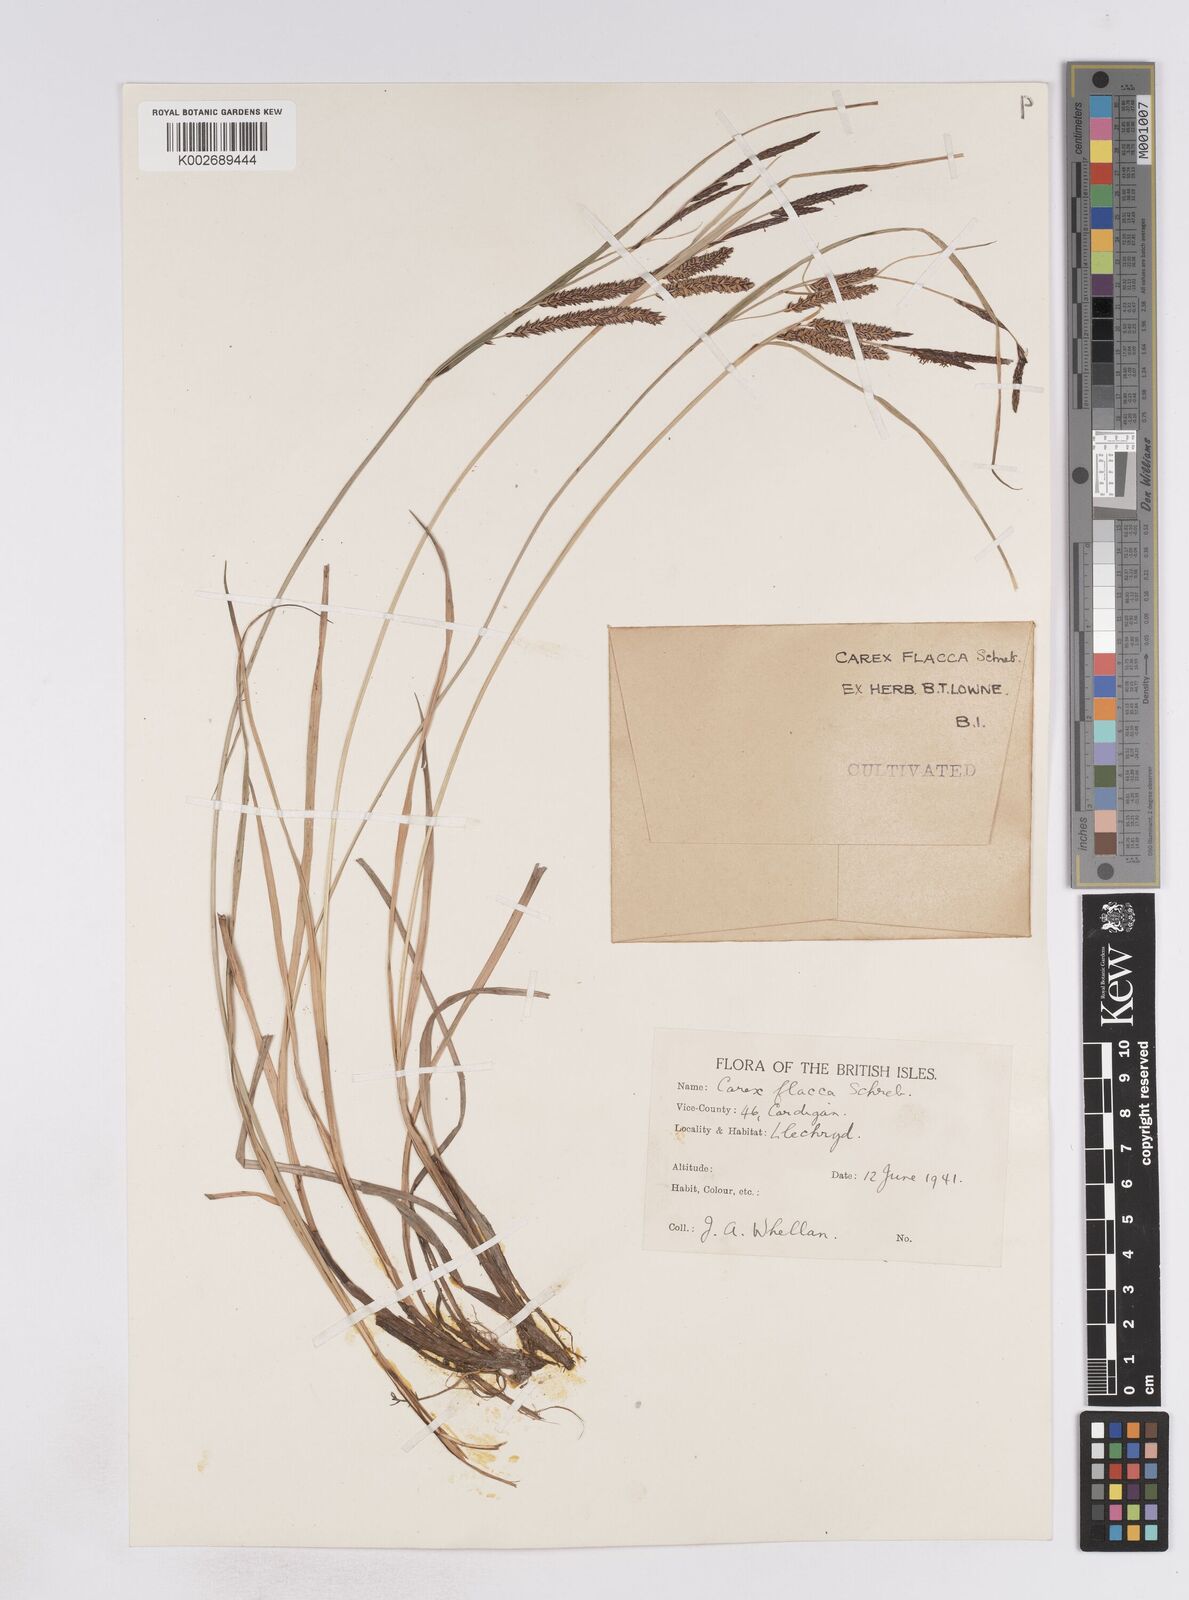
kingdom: Plantae
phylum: Tracheophyta
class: Liliopsida
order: Poales
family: Cyperaceae
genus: Carex
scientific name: Carex flacca
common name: Glaucous sedge
